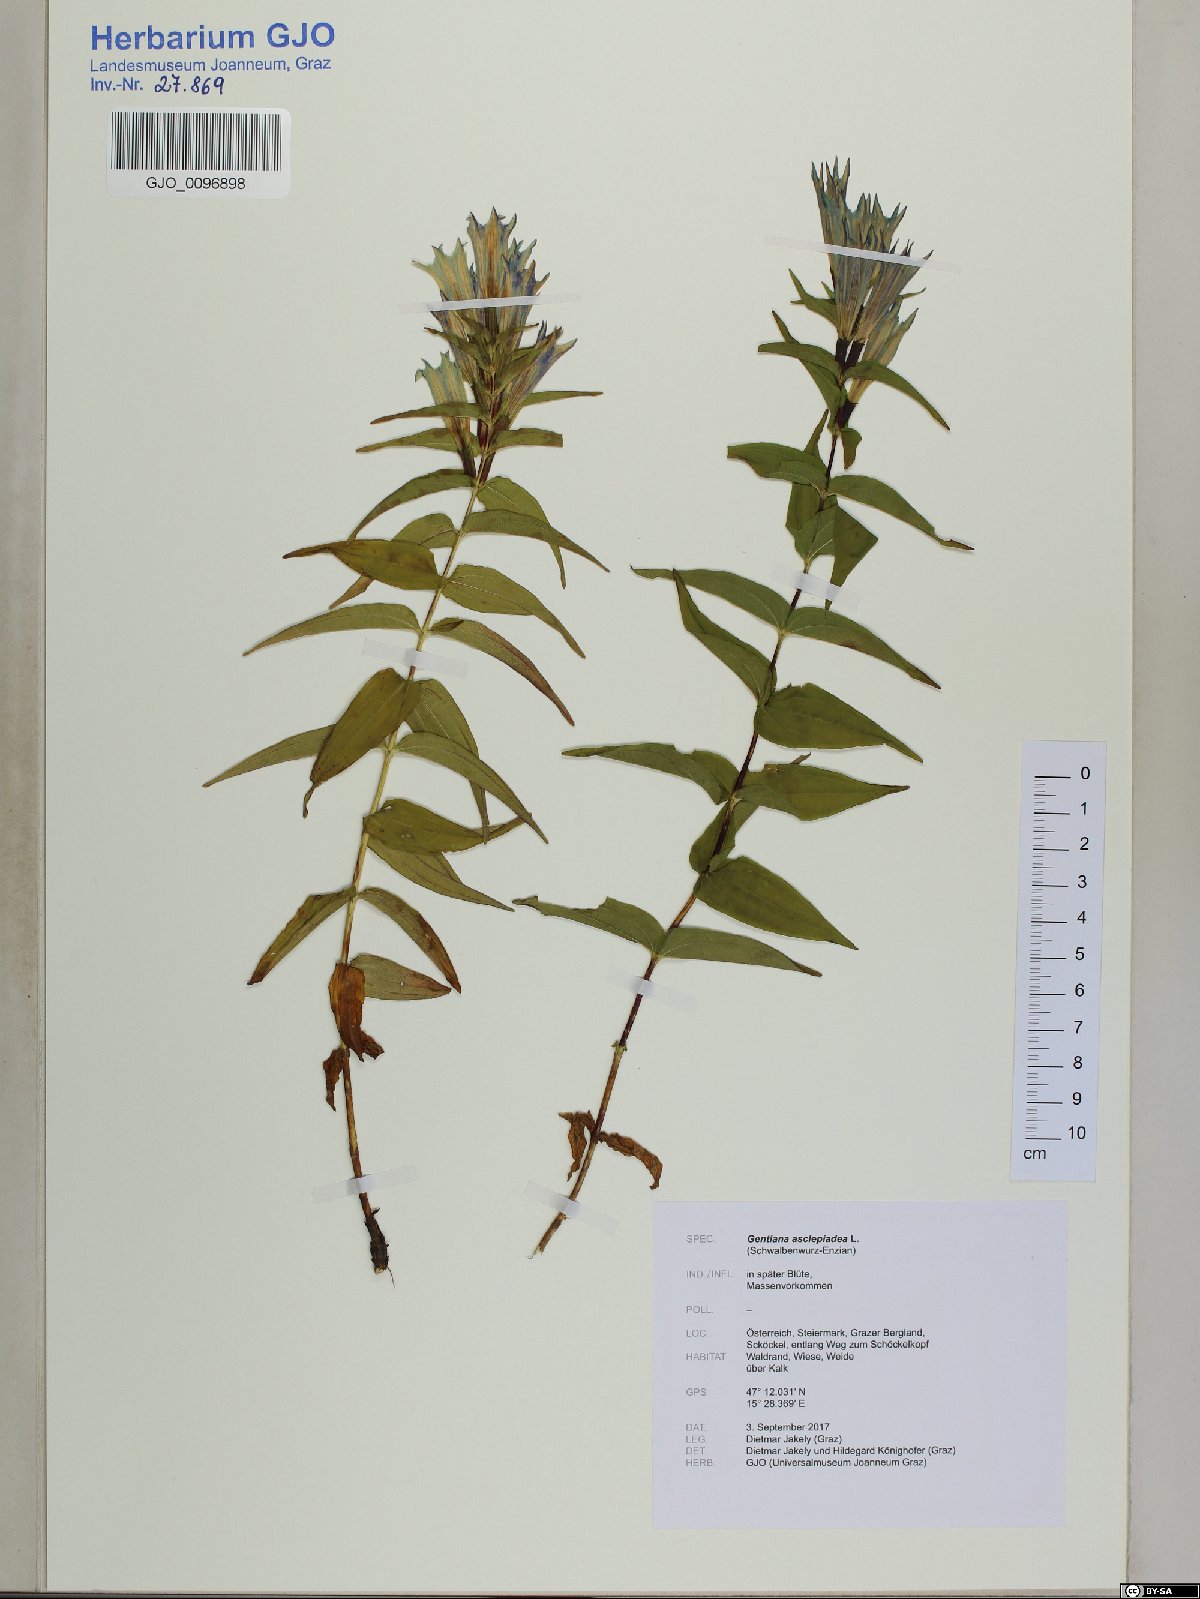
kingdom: Plantae
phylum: Tracheophyta
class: Magnoliopsida
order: Gentianales
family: Gentianaceae
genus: Gentiana
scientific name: Gentiana asclepiadea
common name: Willow gentian
